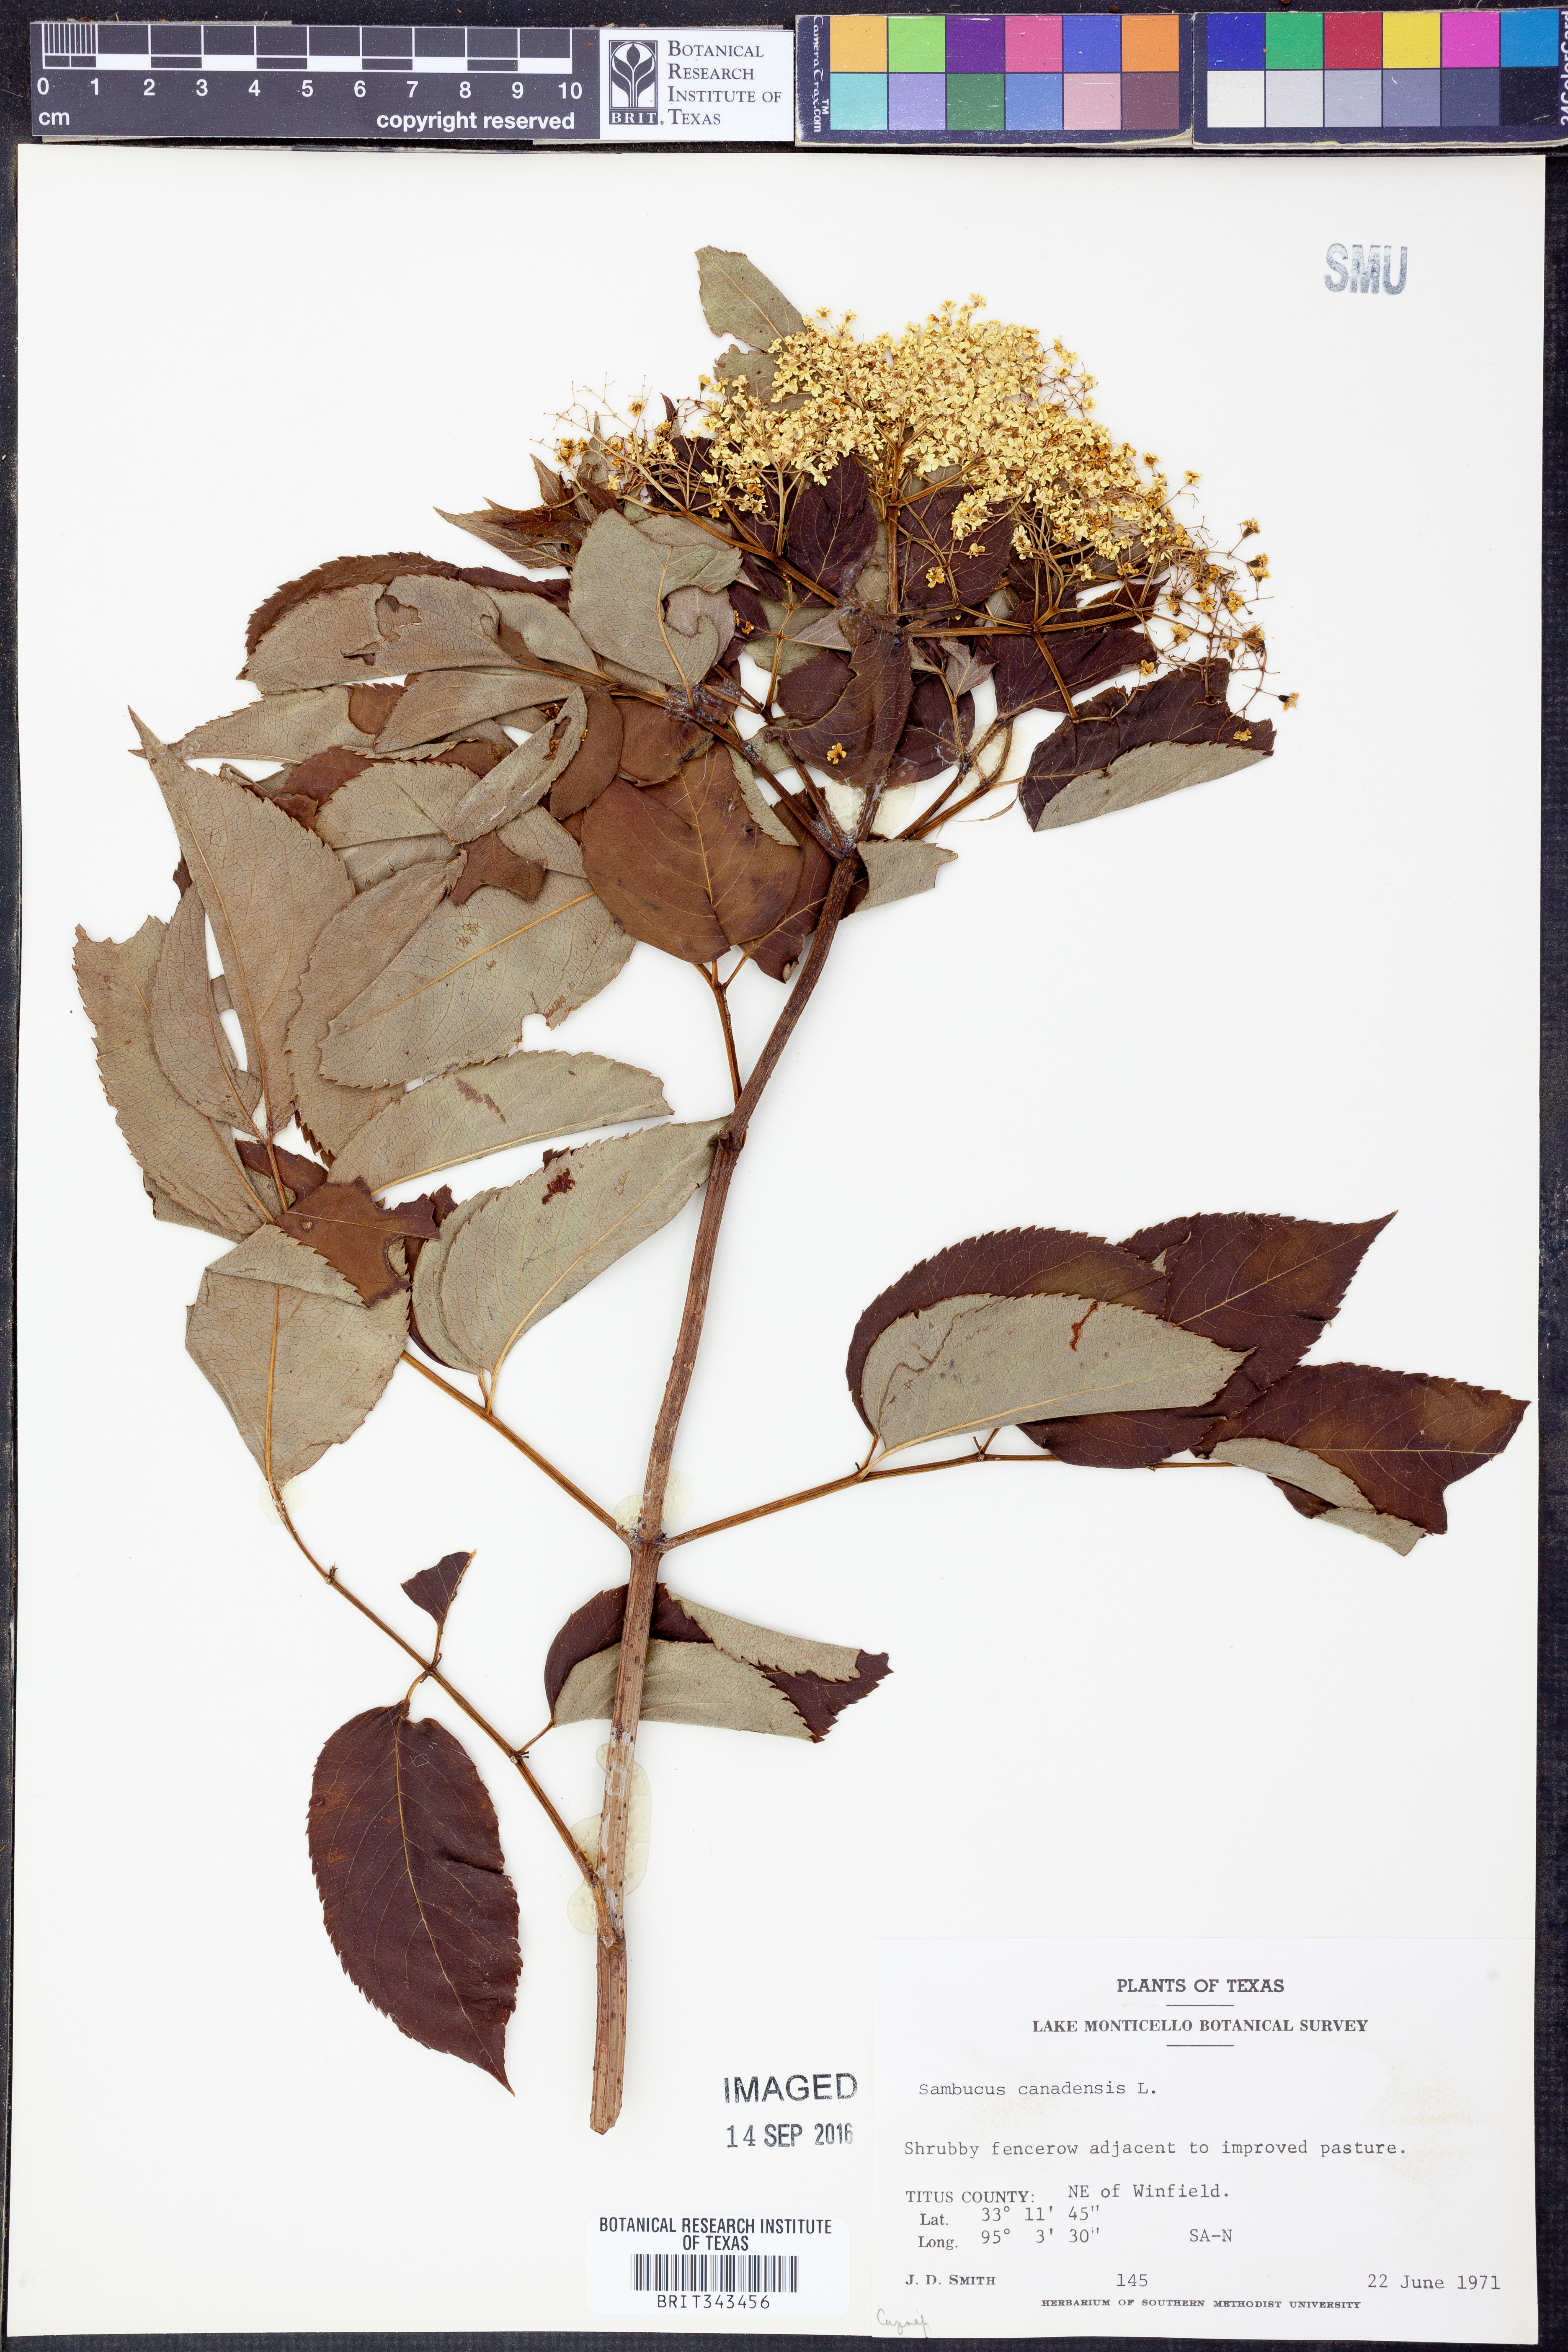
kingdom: Plantae
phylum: Tracheophyta
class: Magnoliopsida
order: Dipsacales
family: Viburnaceae
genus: Sambucus
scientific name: Sambucus canadensis
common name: American elder
